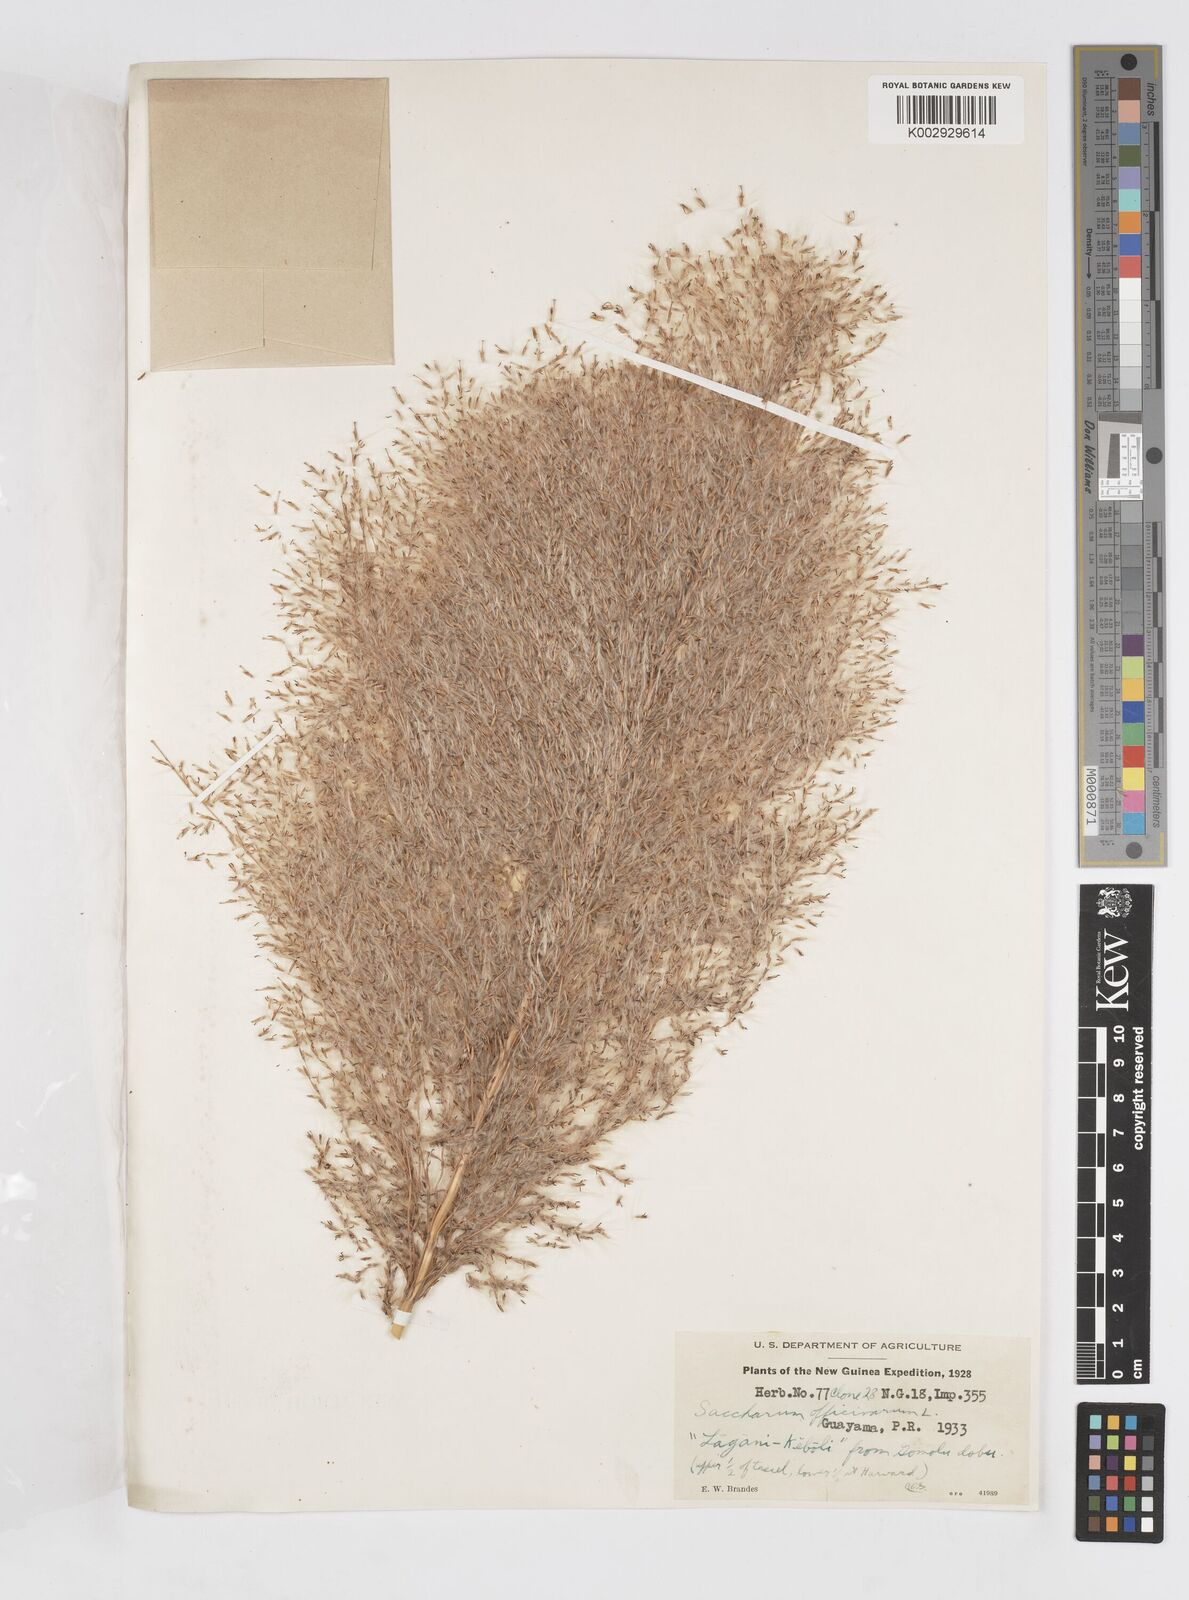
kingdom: Plantae
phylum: Tracheophyta
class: Liliopsida
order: Poales
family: Poaceae
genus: Saccharum
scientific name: Saccharum officinarum
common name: Sugarcane
